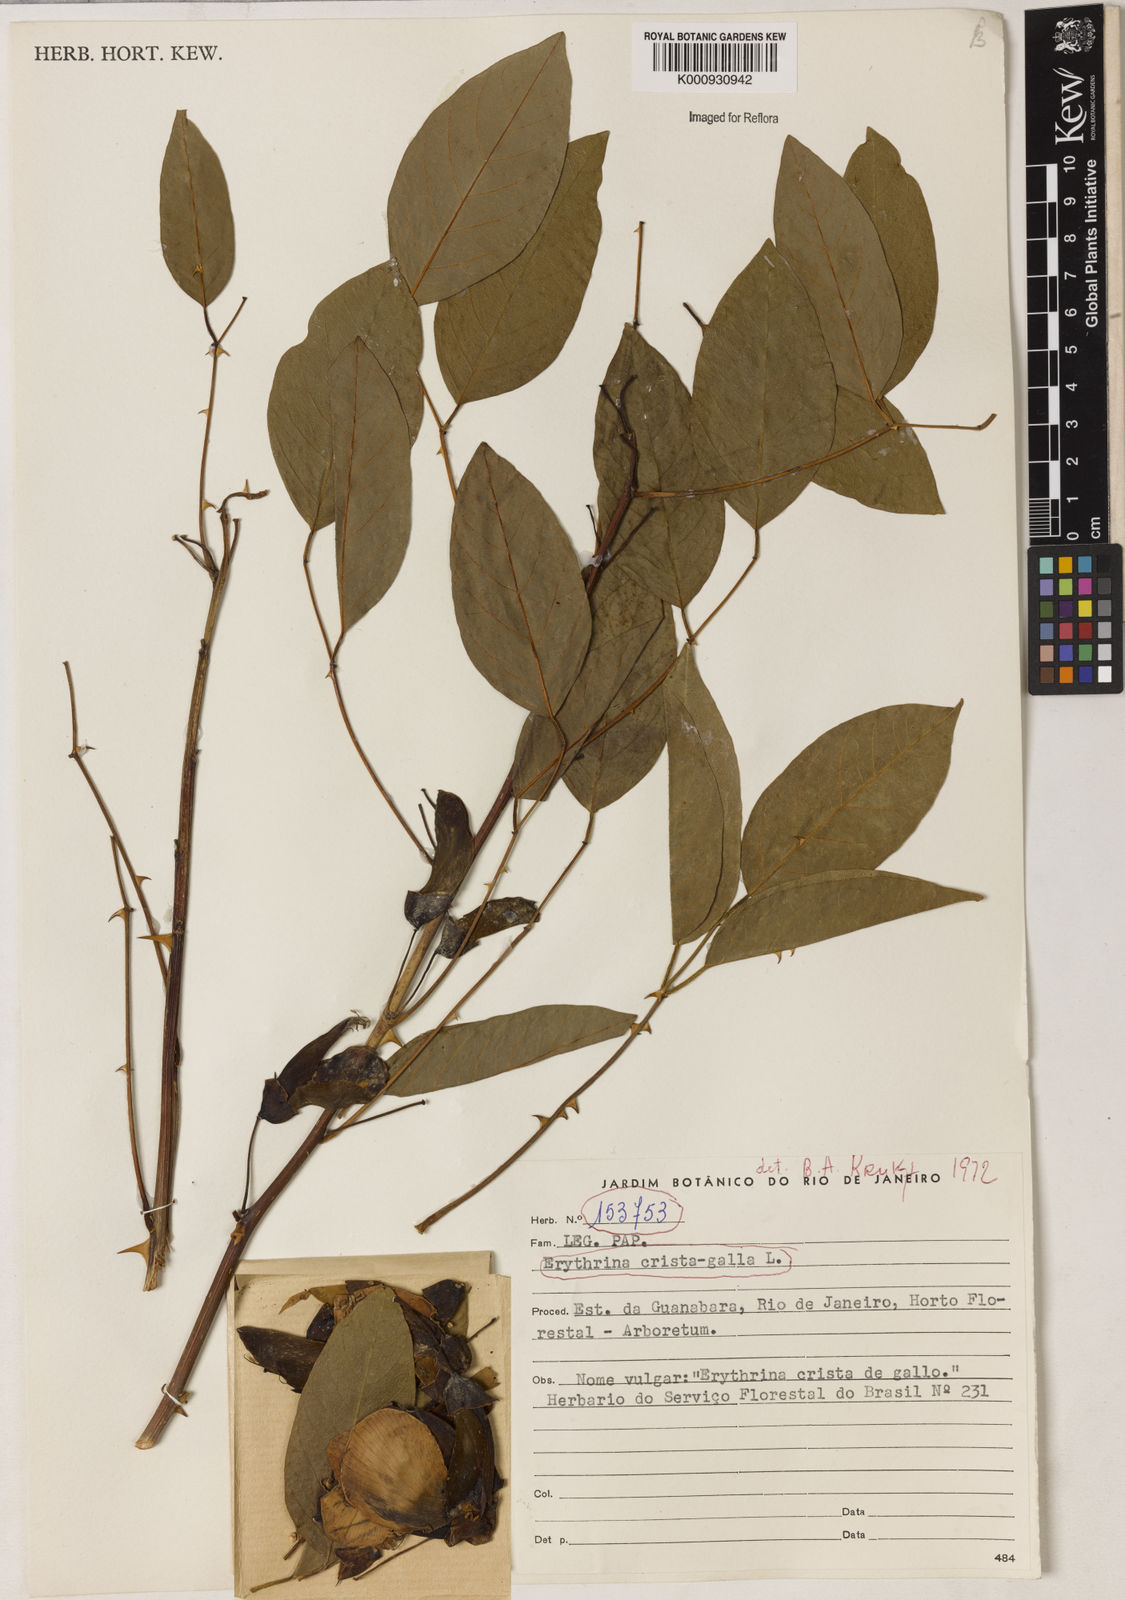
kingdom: Plantae
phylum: Tracheophyta
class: Magnoliopsida
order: Fabales
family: Fabaceae
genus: Erythrina
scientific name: Erythrina crista-galli
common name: Cockspur coral tree
